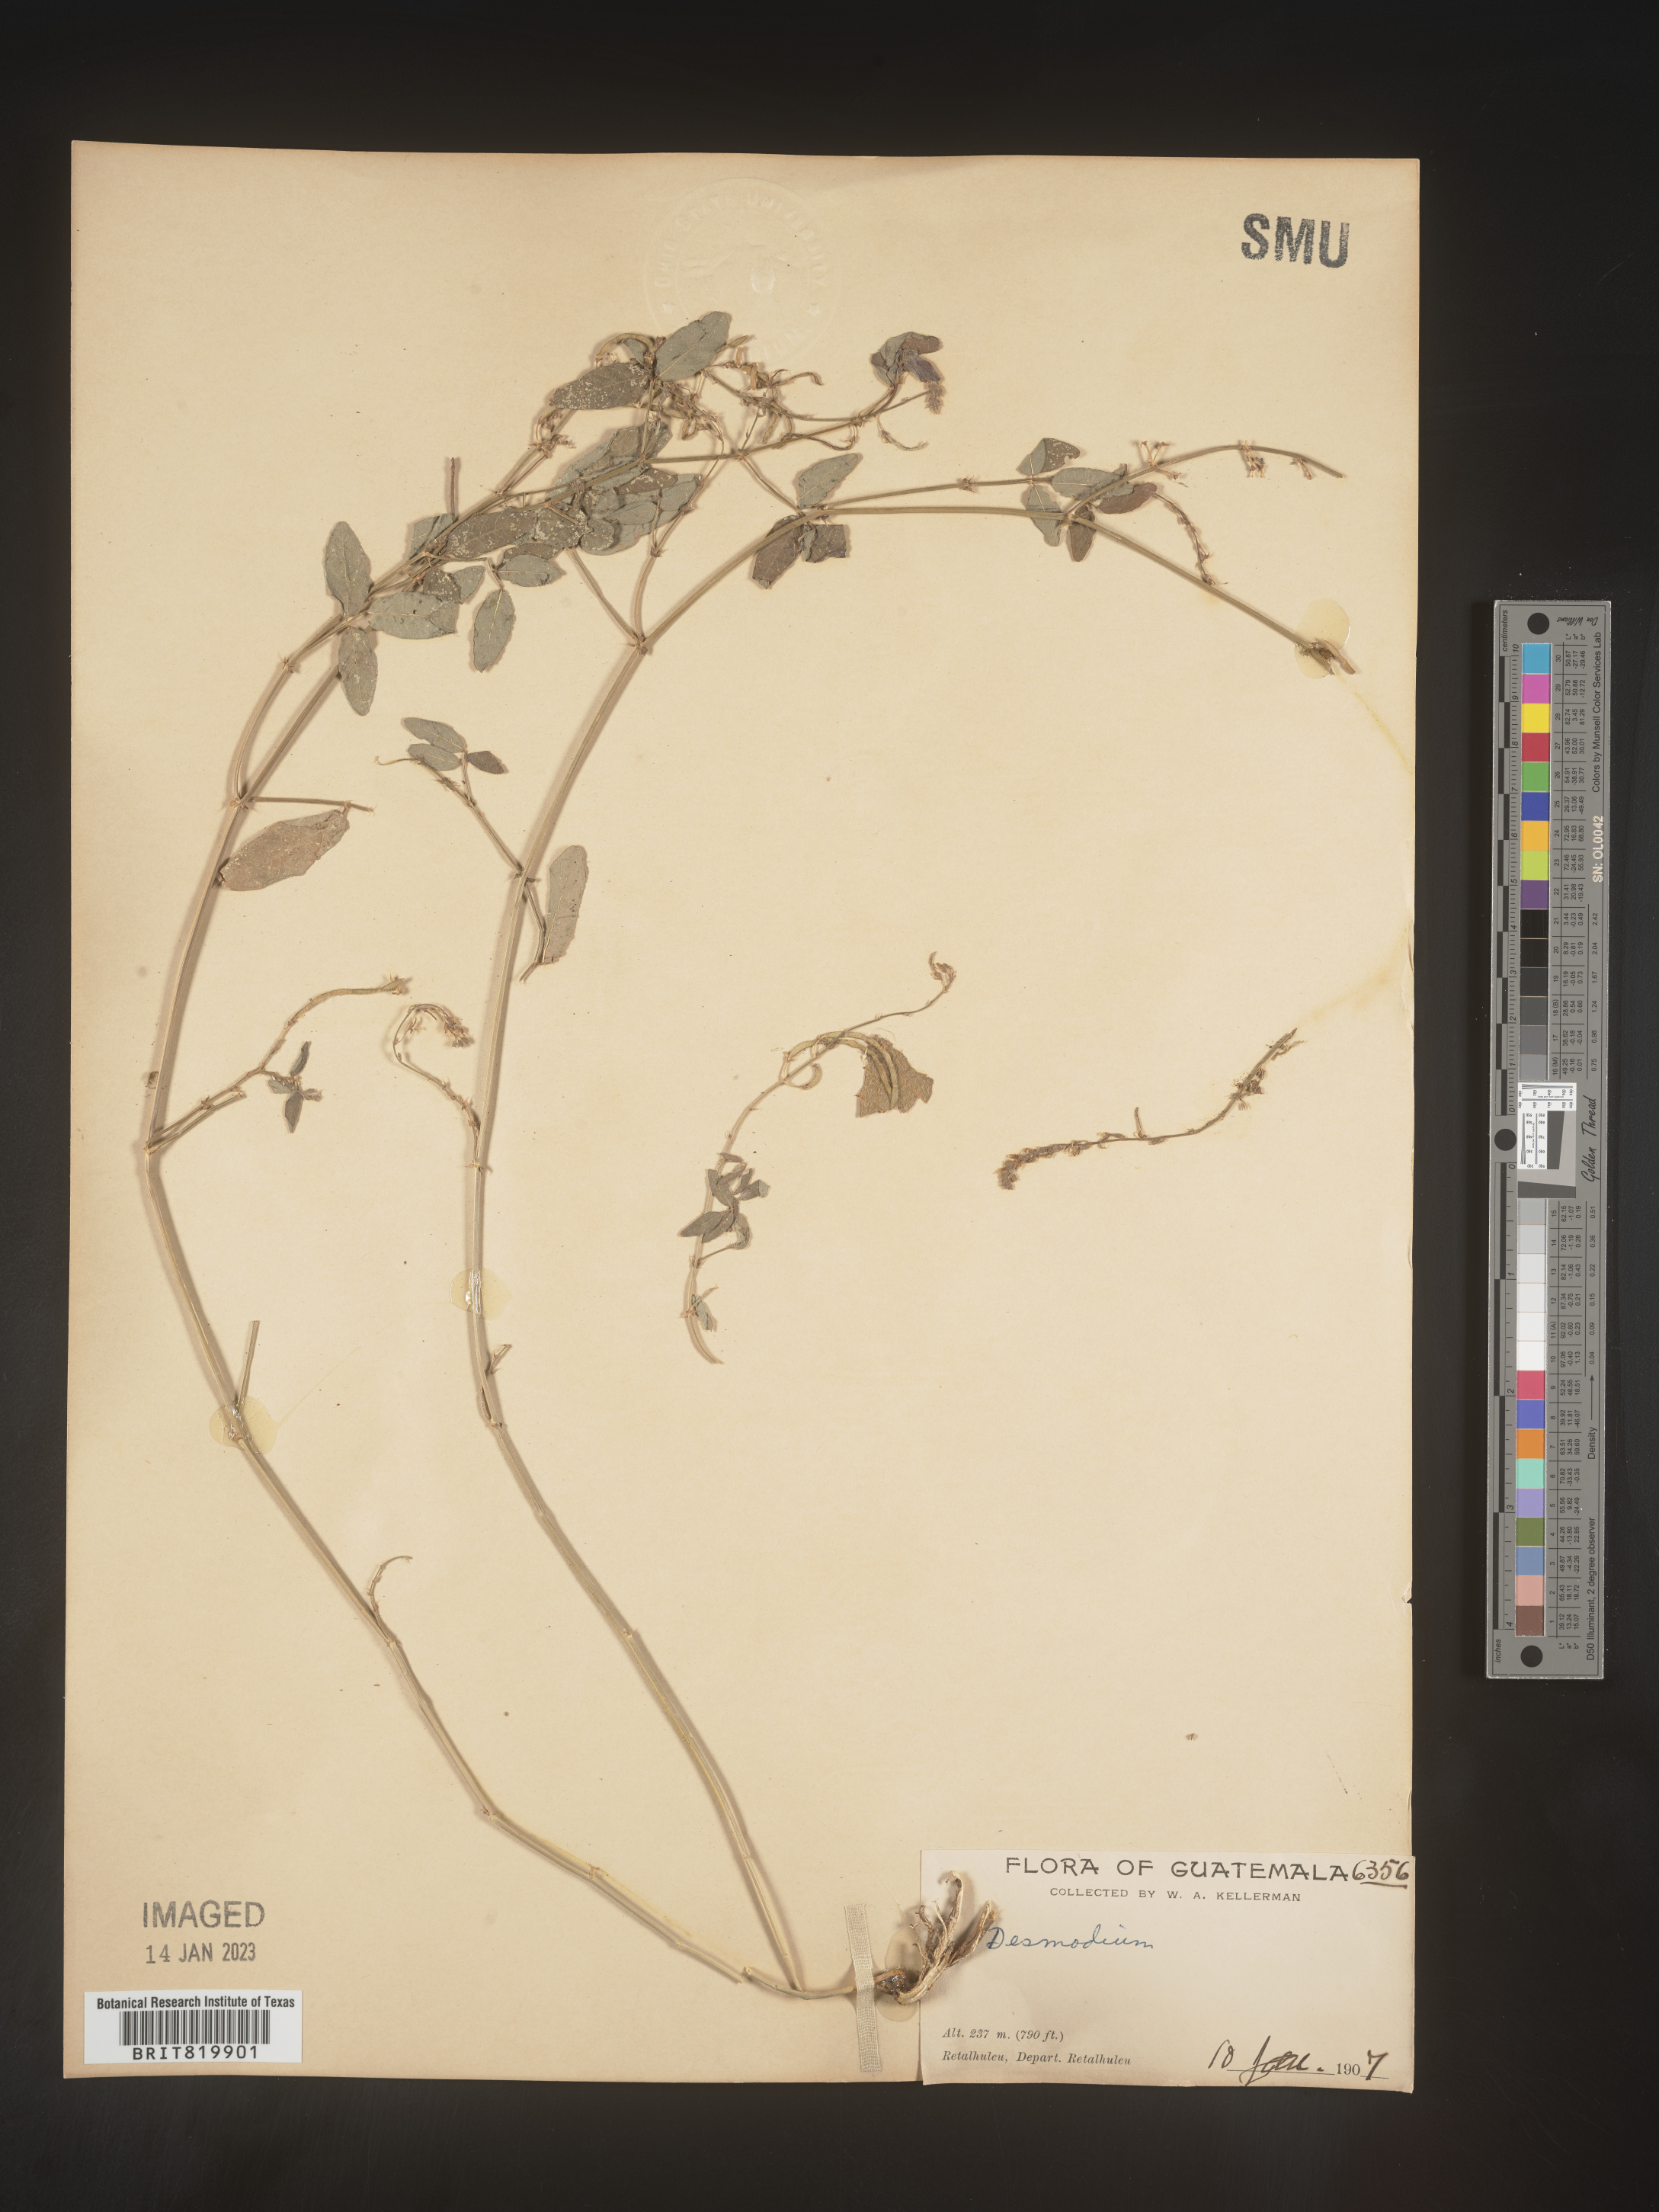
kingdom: Plantae
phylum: Tracheophyta
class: Magnoliopsida
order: Fabales
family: Fabaceae
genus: Desmodium
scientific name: Desmodium
